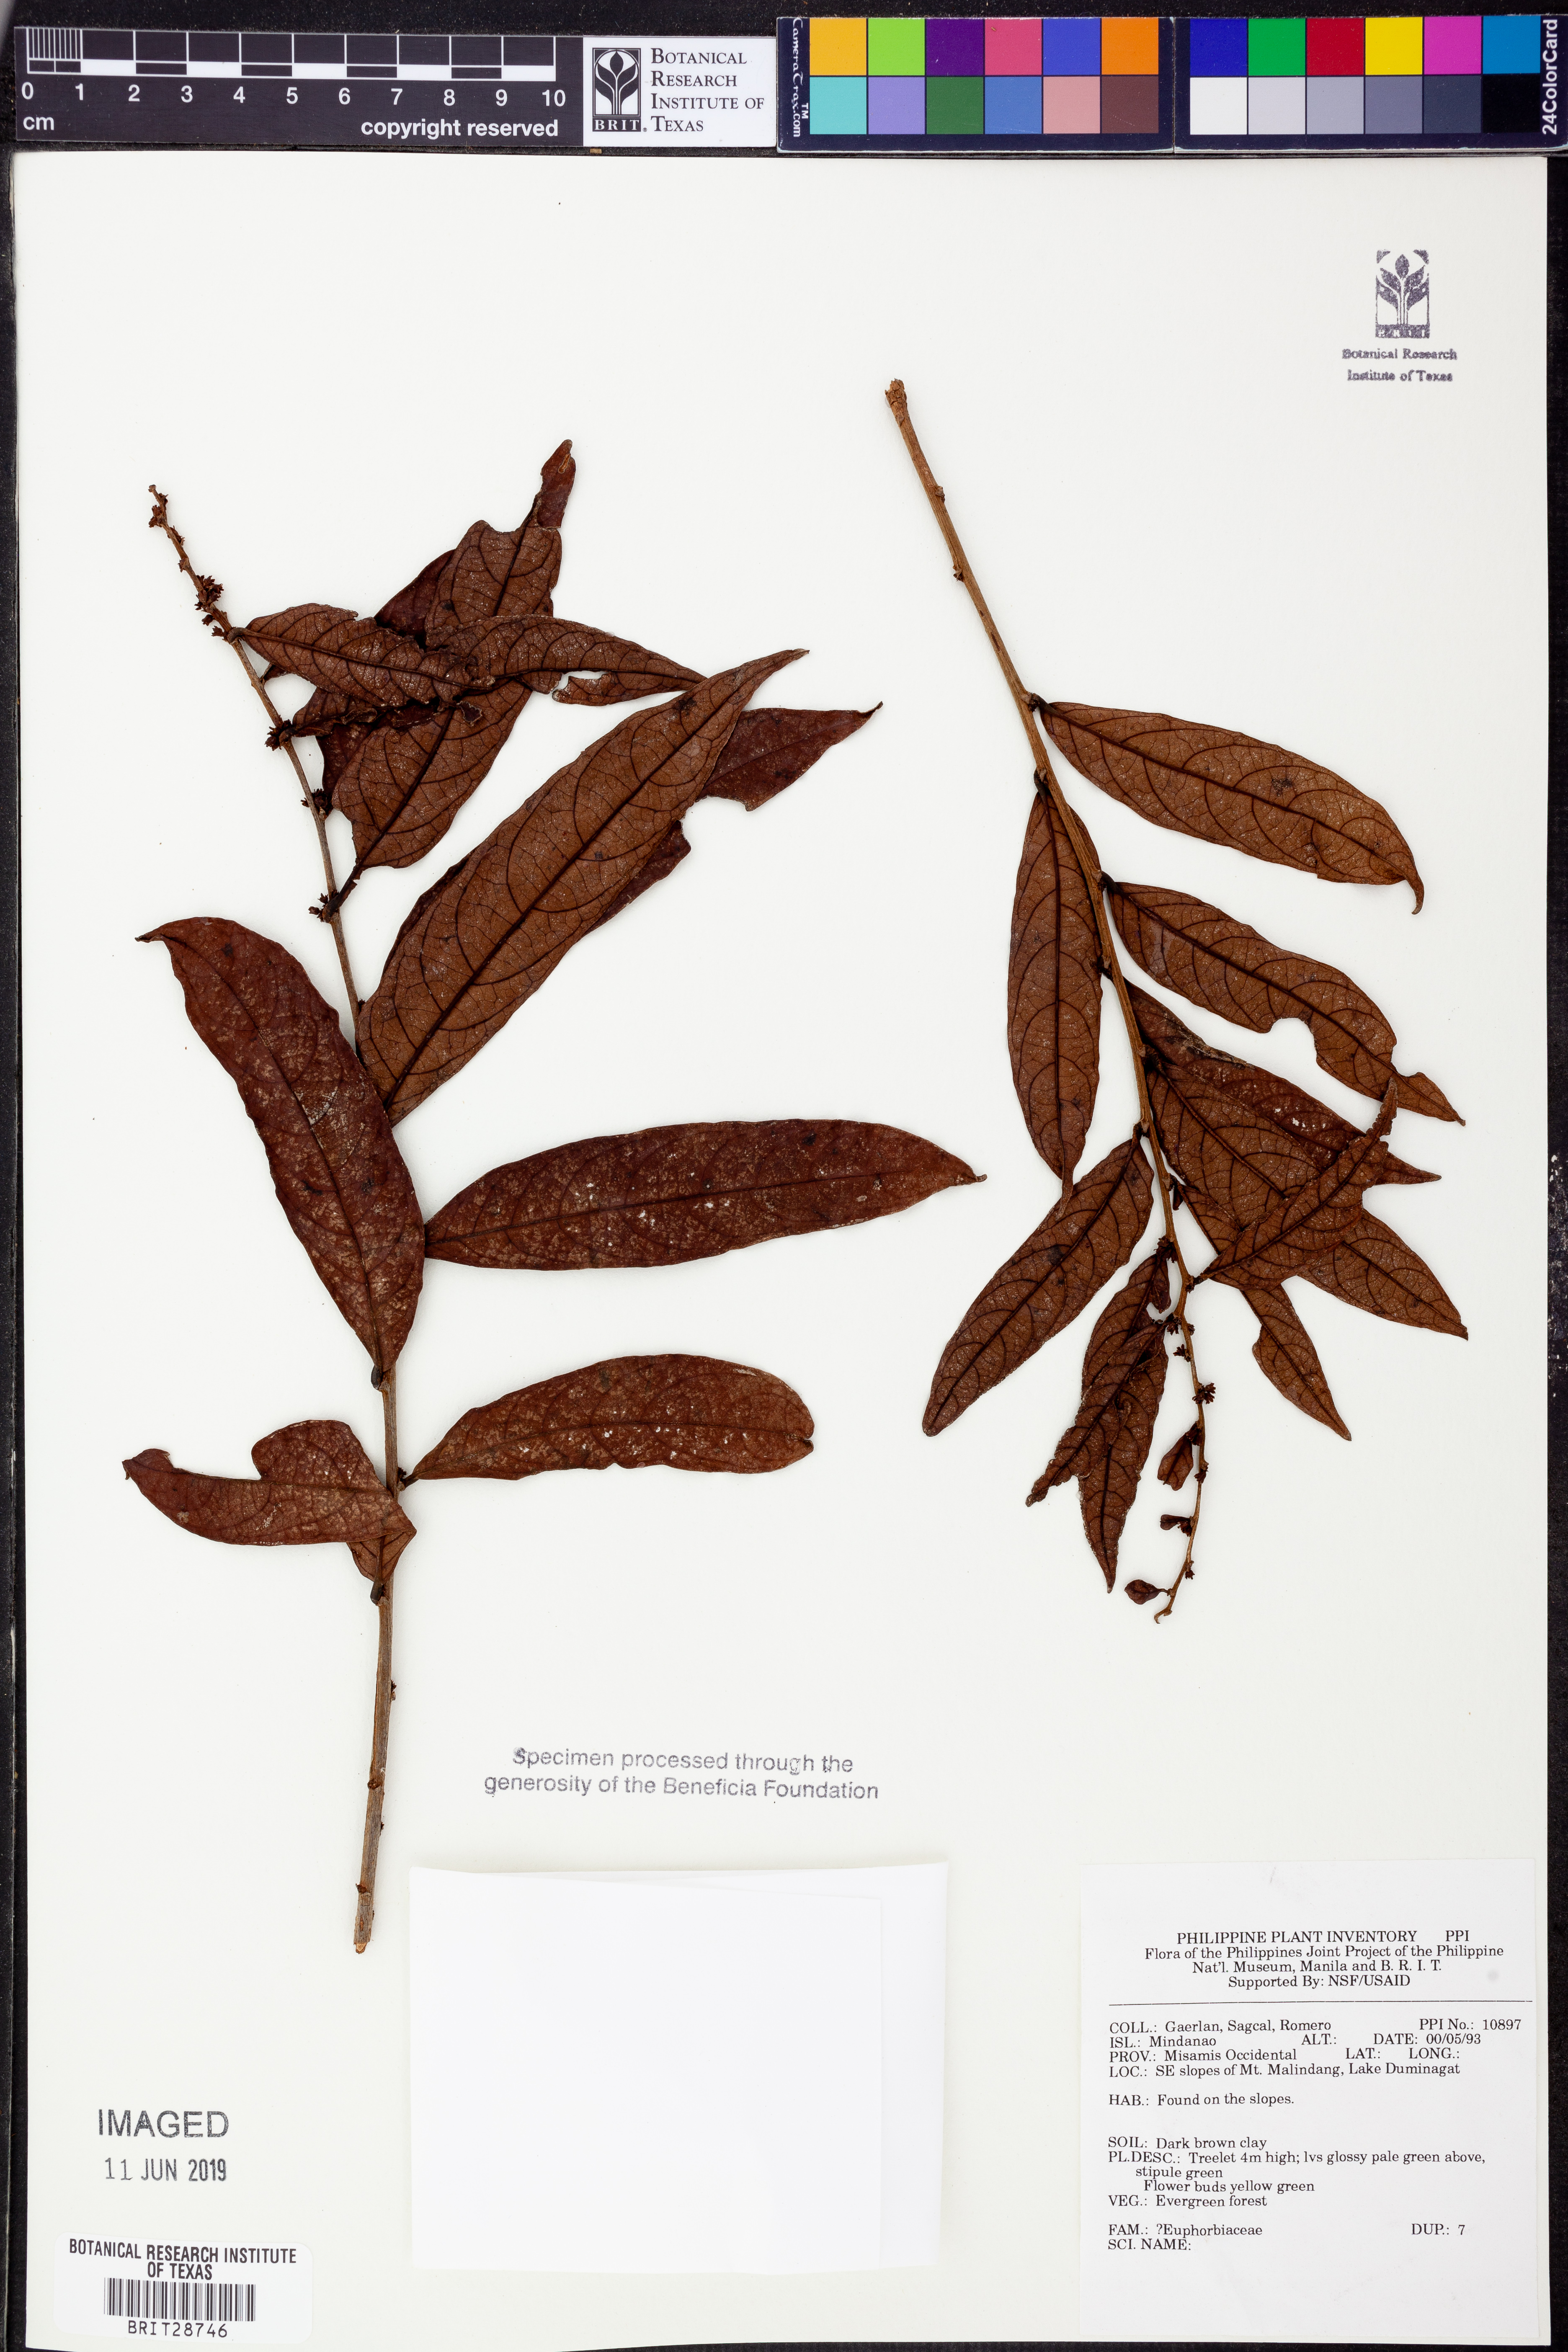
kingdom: Plantae
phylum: Tracheophyta
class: Magnoliopsida
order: Malpighiales
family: Euphorbiaceae
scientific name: Euphorbiaceae
